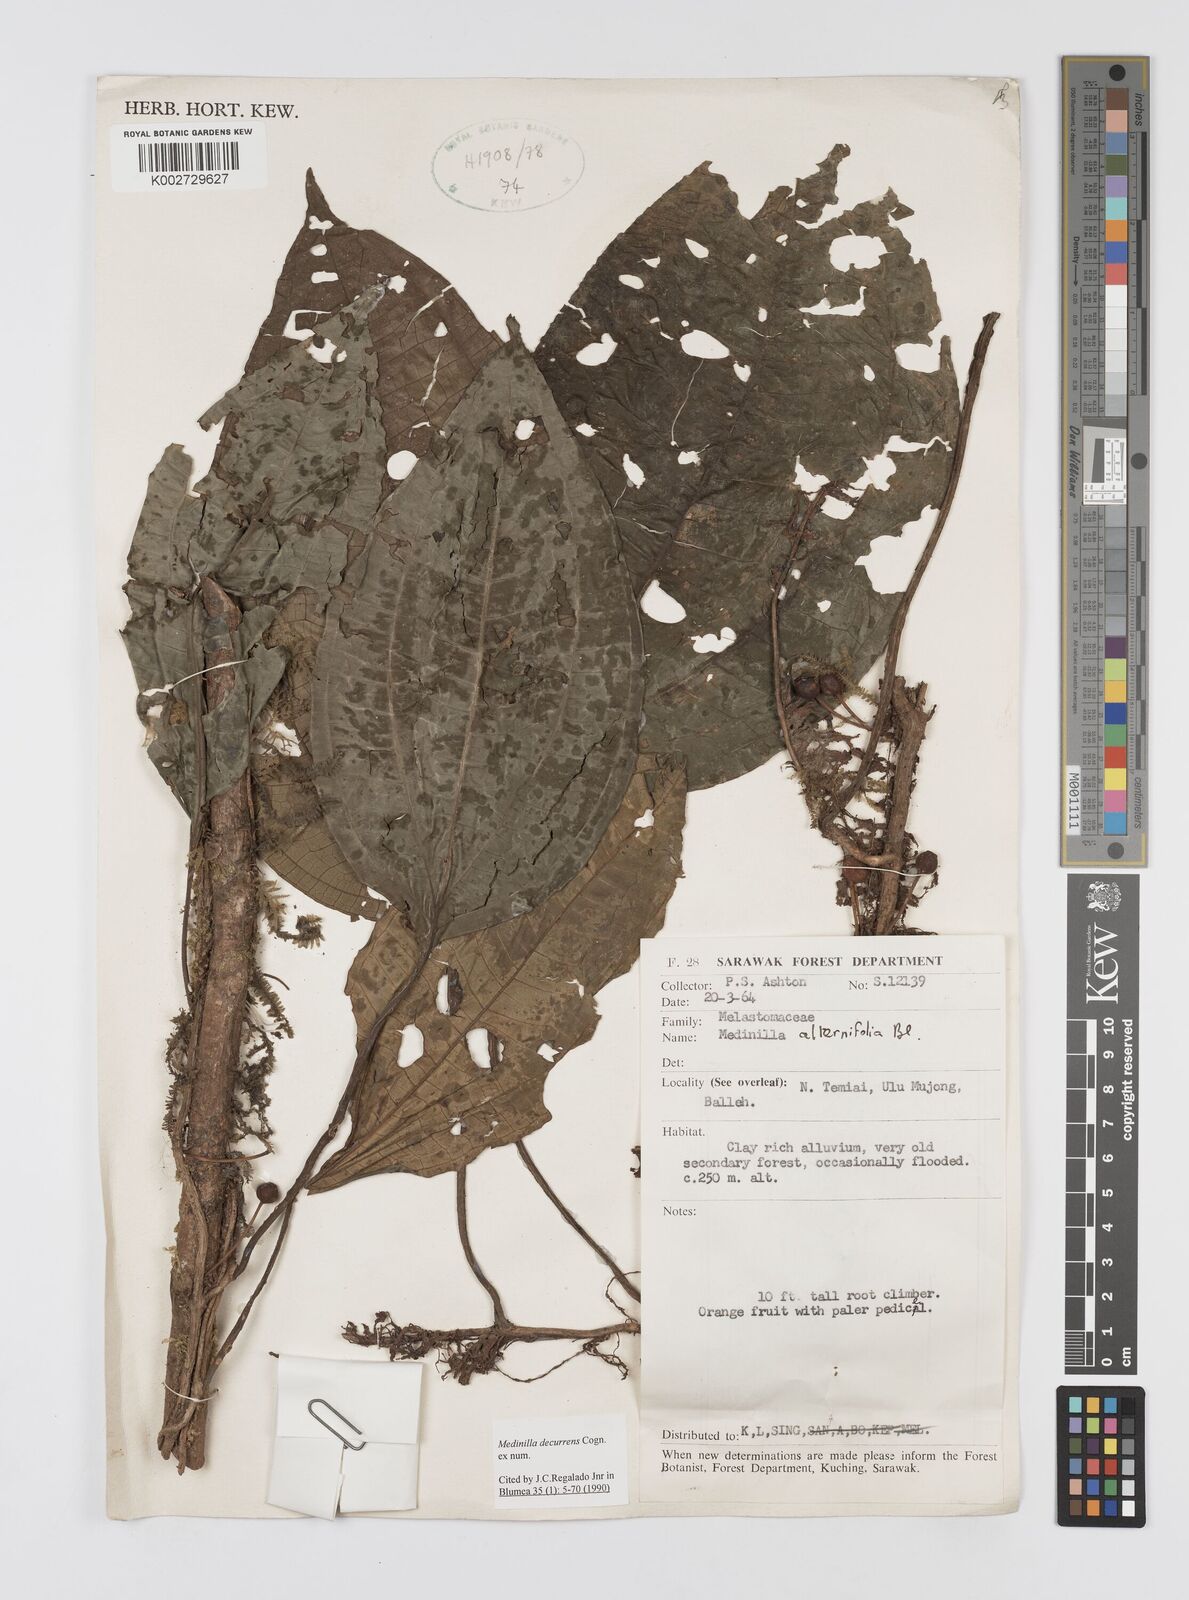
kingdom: Plantae
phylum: Tracheophyta
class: Magnoliopsida
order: Myrtales
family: Melastomataceae
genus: Heteroblemma
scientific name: Heteroblemma decurrens
